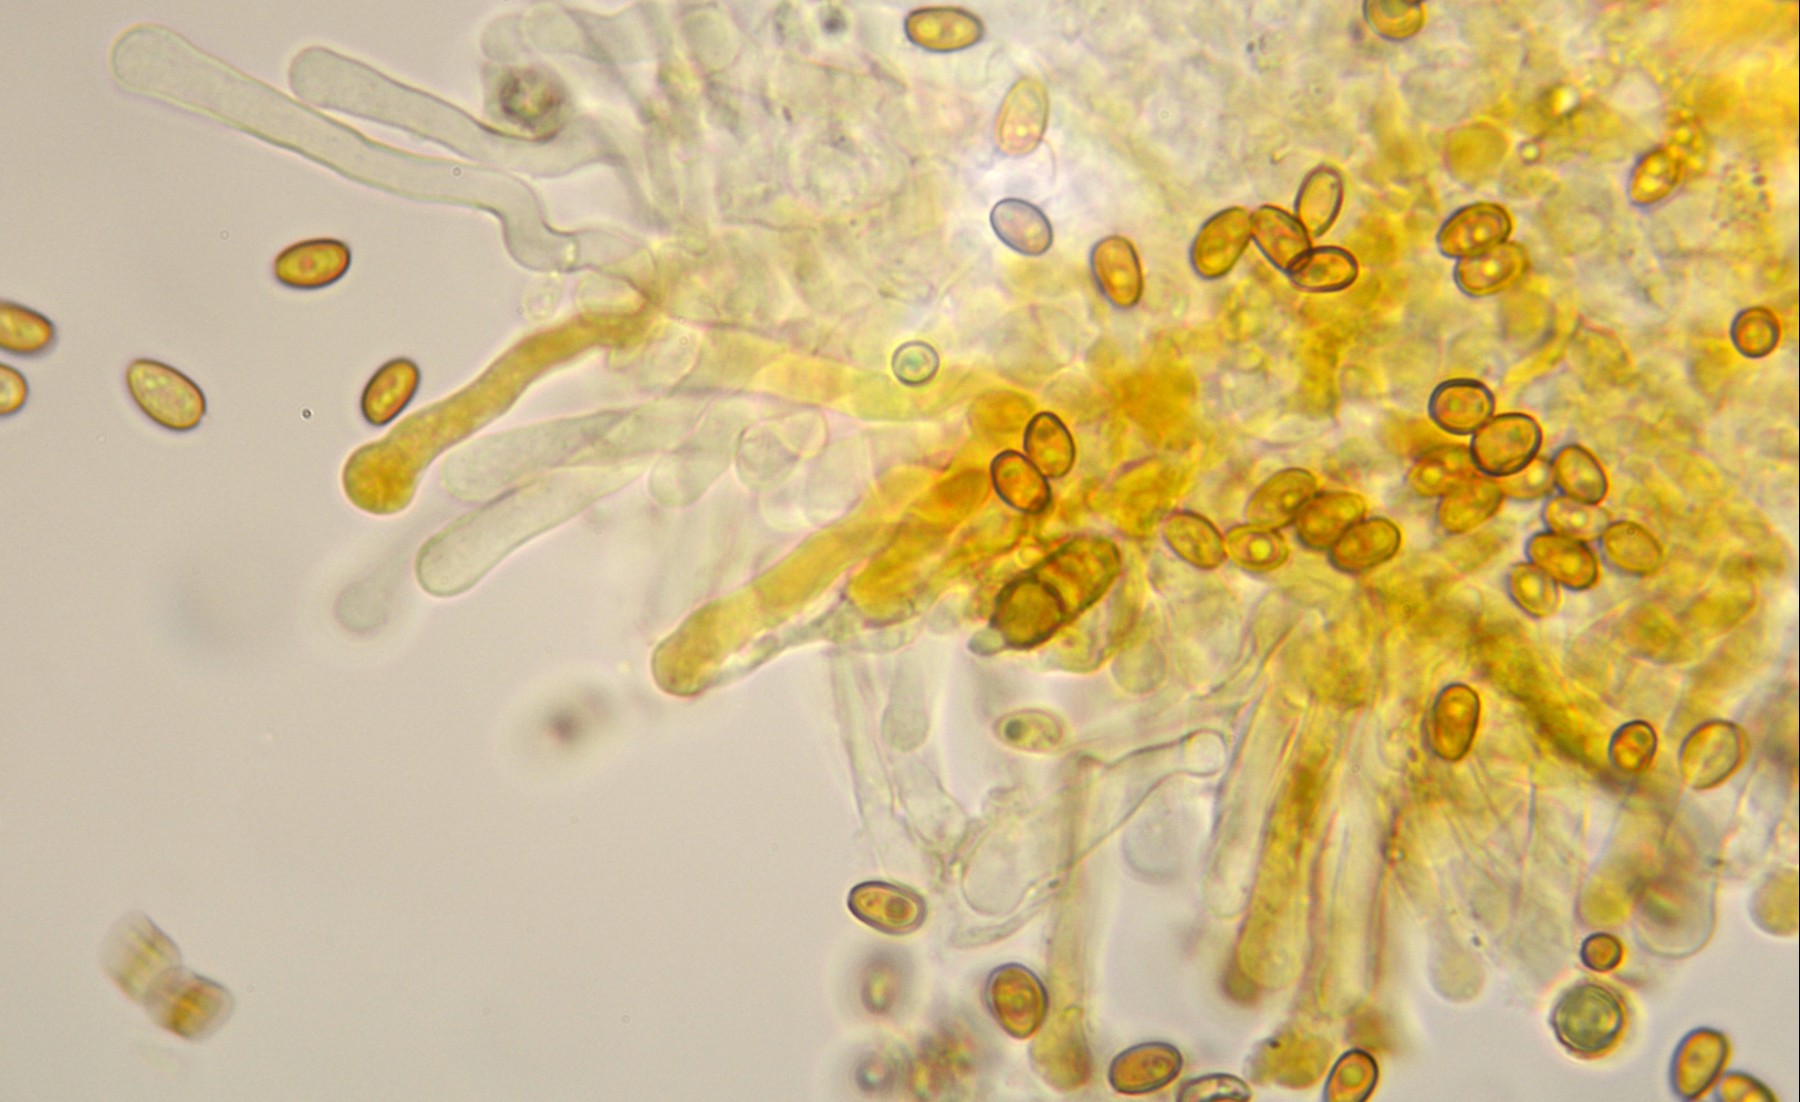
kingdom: Fungi
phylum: Basidiomycota
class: Agaricomycetes
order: Agaricales
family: Strophariaceae
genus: Pholiota
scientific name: Pholiota gummosa
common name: grøngul skælhat
